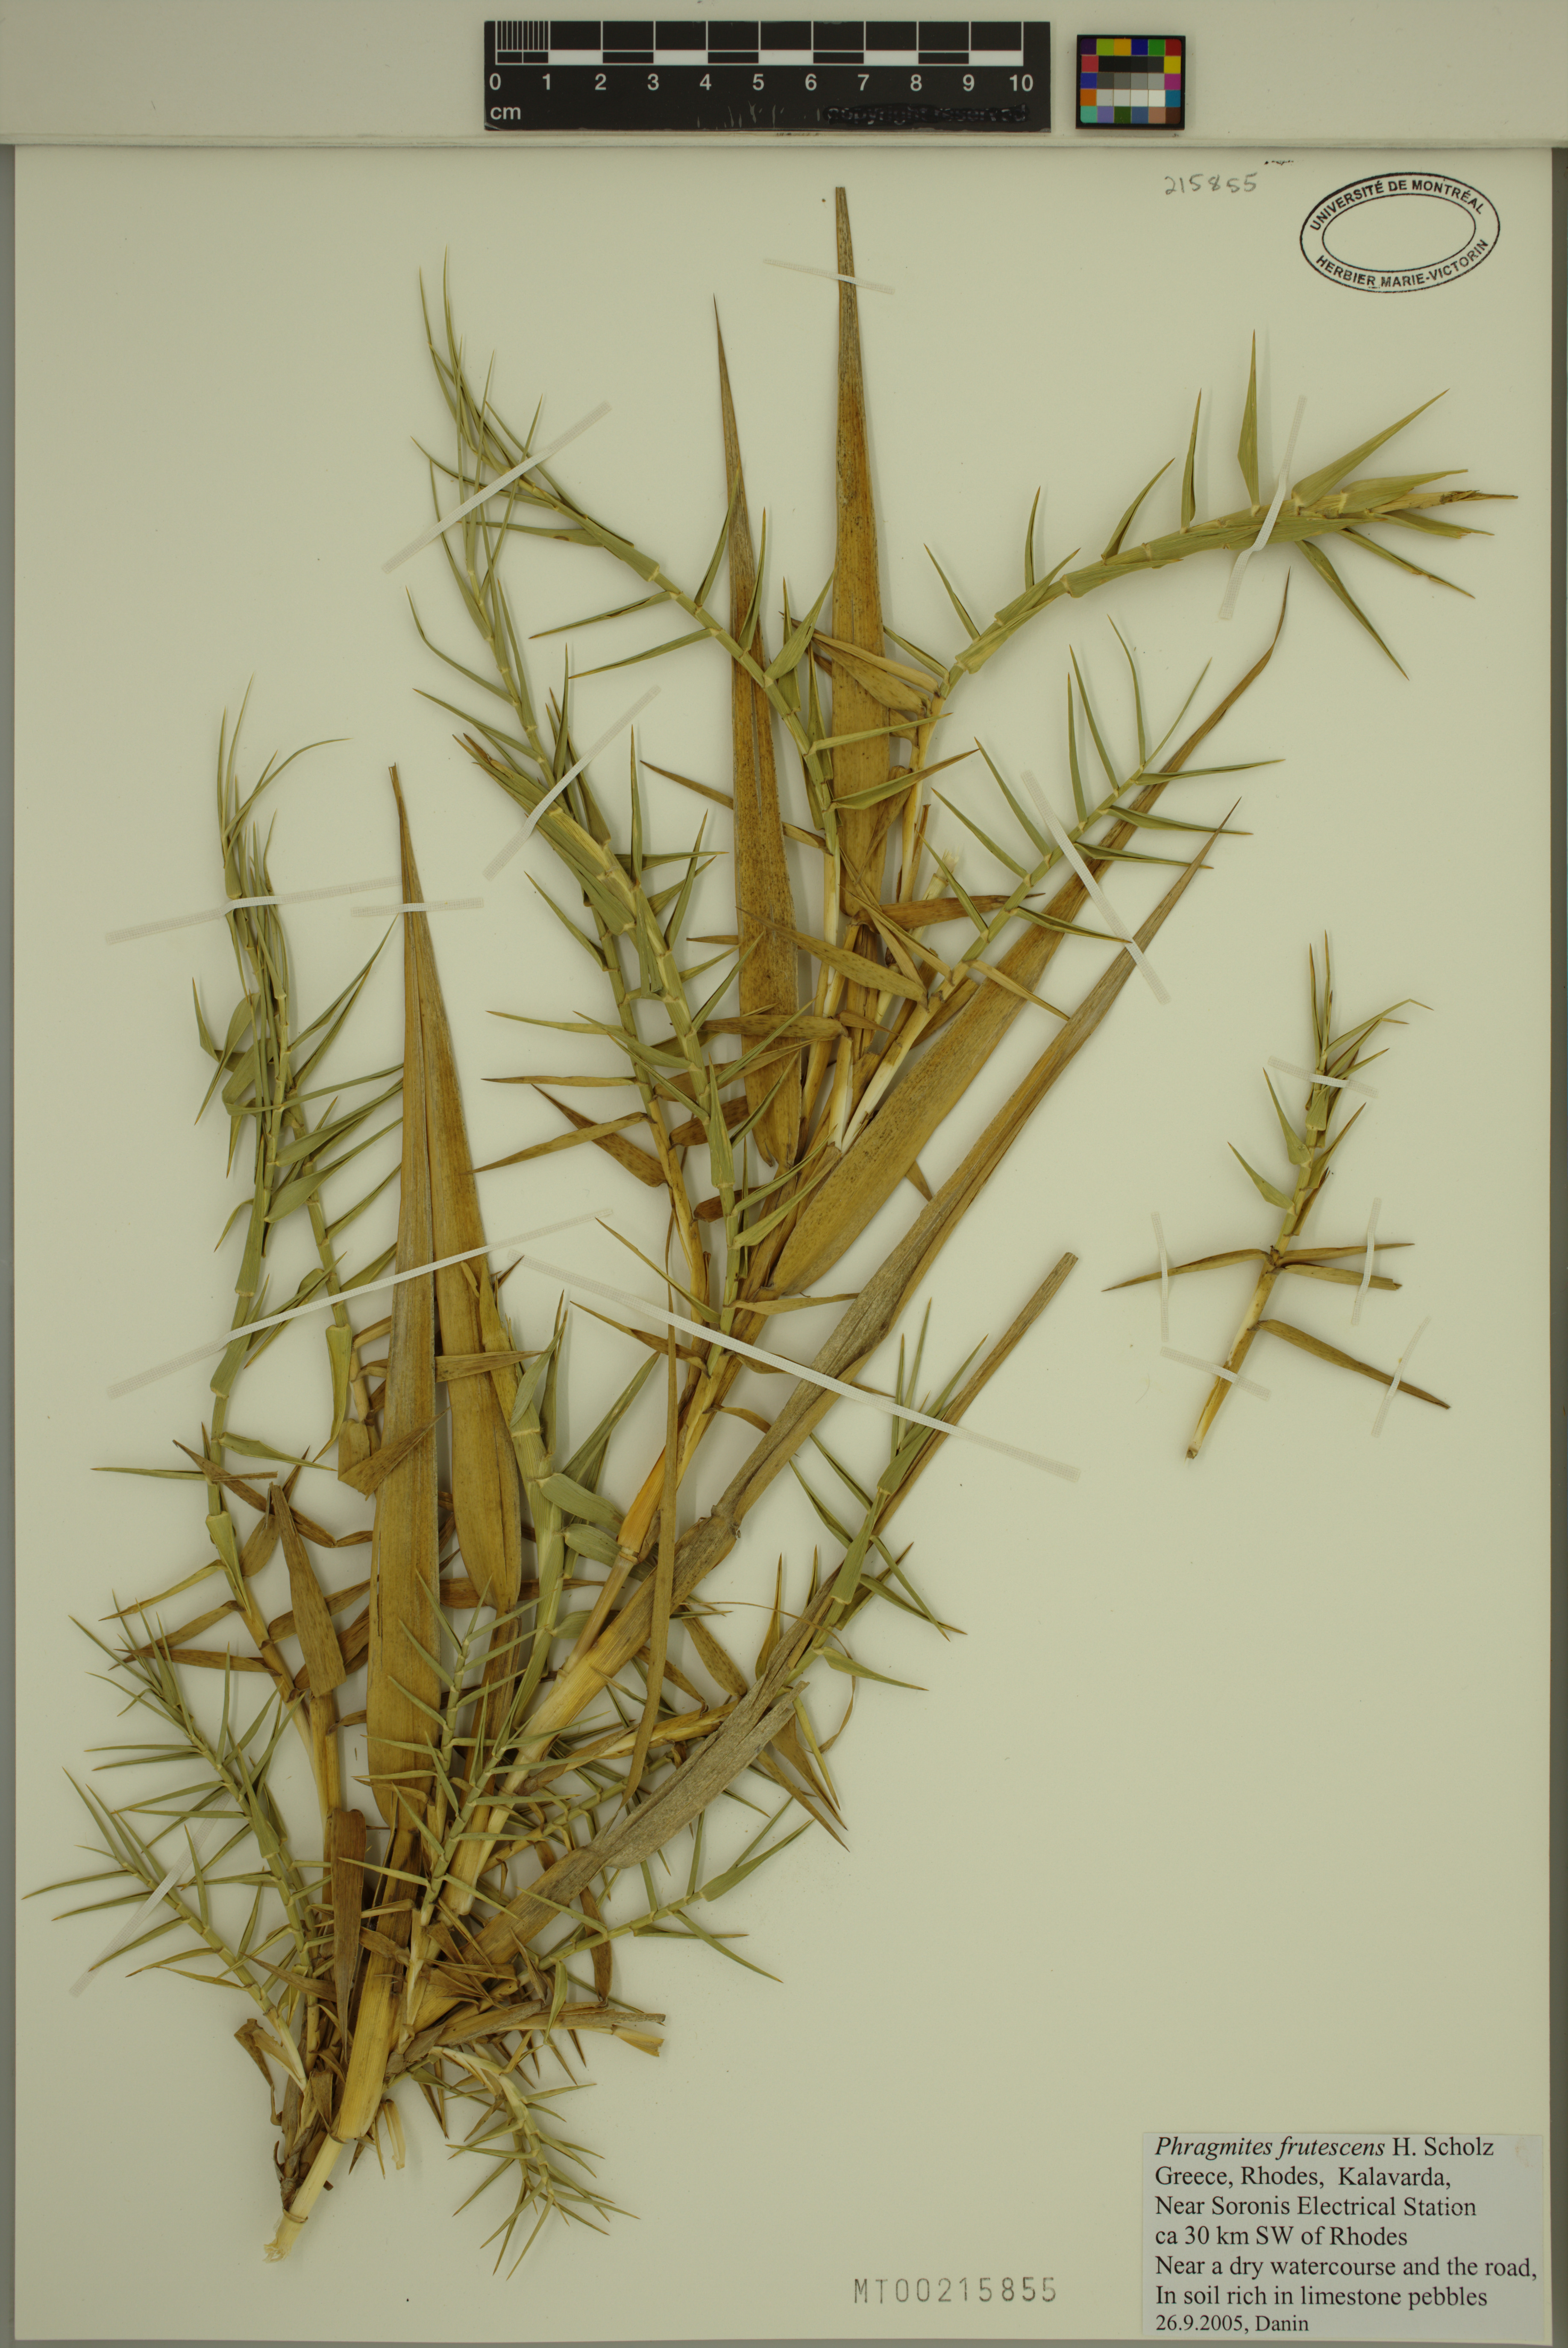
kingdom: Plantae
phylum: Tracheophyta
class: Liliopsida
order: Poales
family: Poaceae
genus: Phragmites
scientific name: Phragmites australis
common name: Common reed
